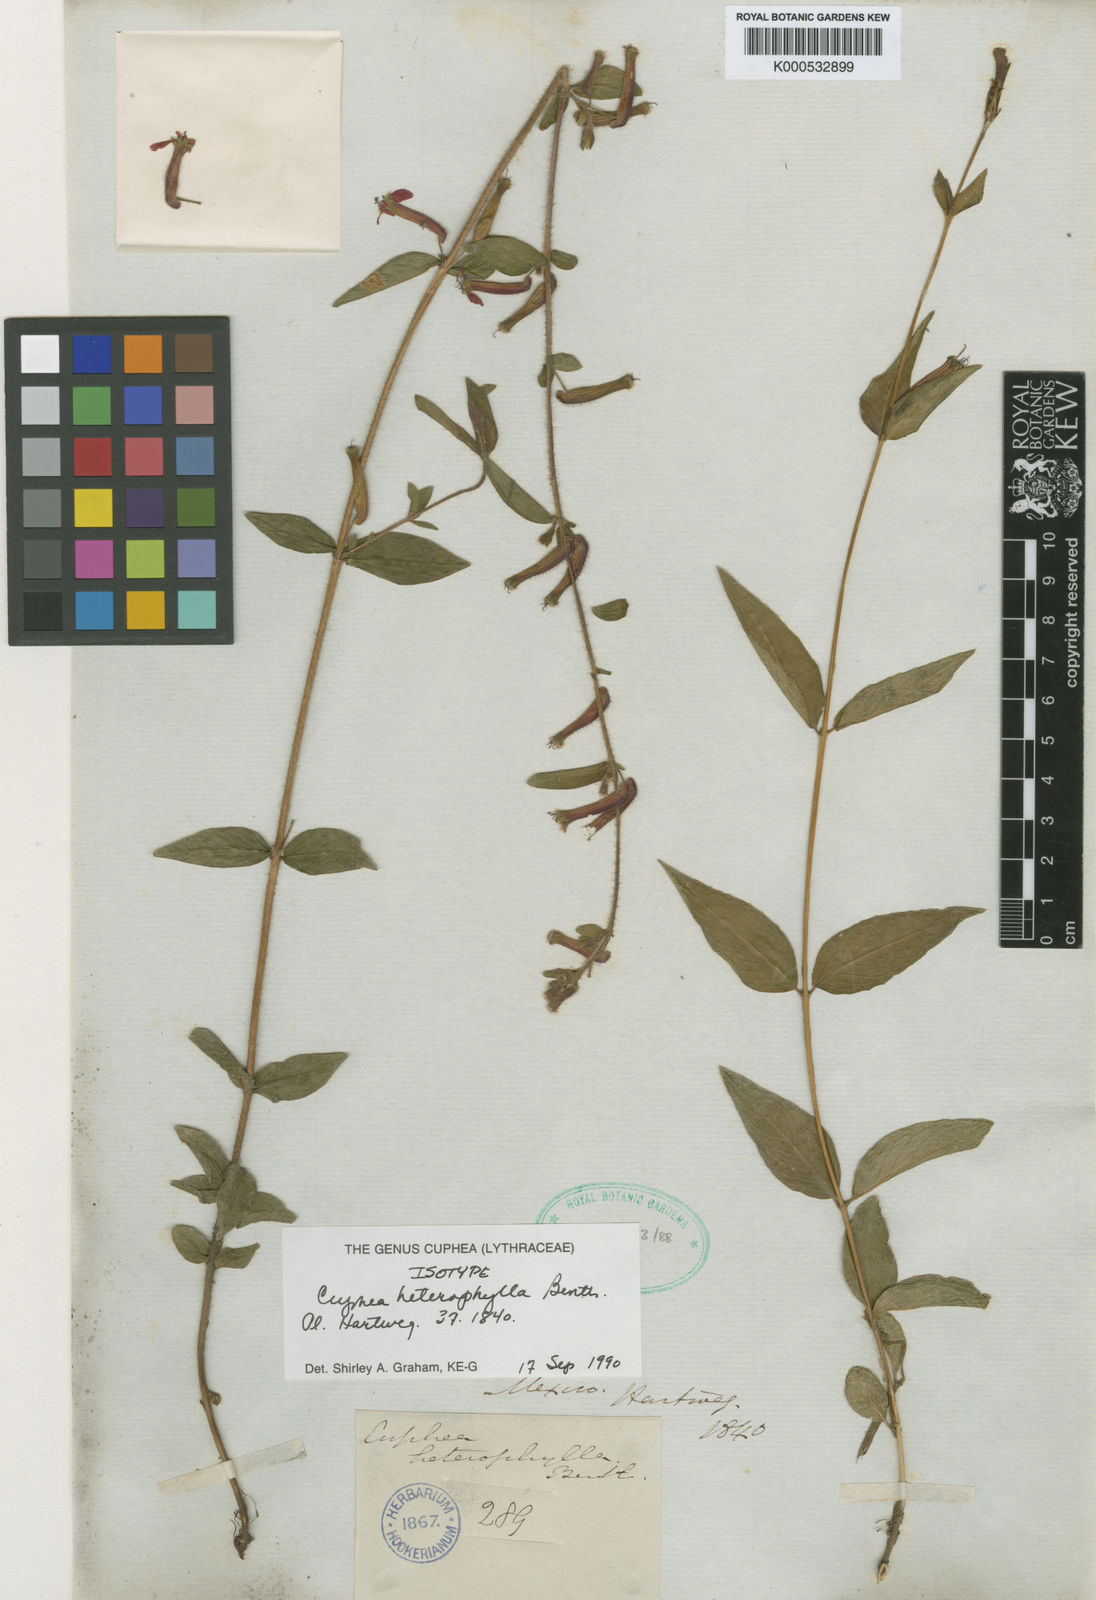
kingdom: Plantae
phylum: Tracheophyta
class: Magnoliopsida
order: Myrtales
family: Lythraceae
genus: Cuphea
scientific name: Cuphea heterophylla
